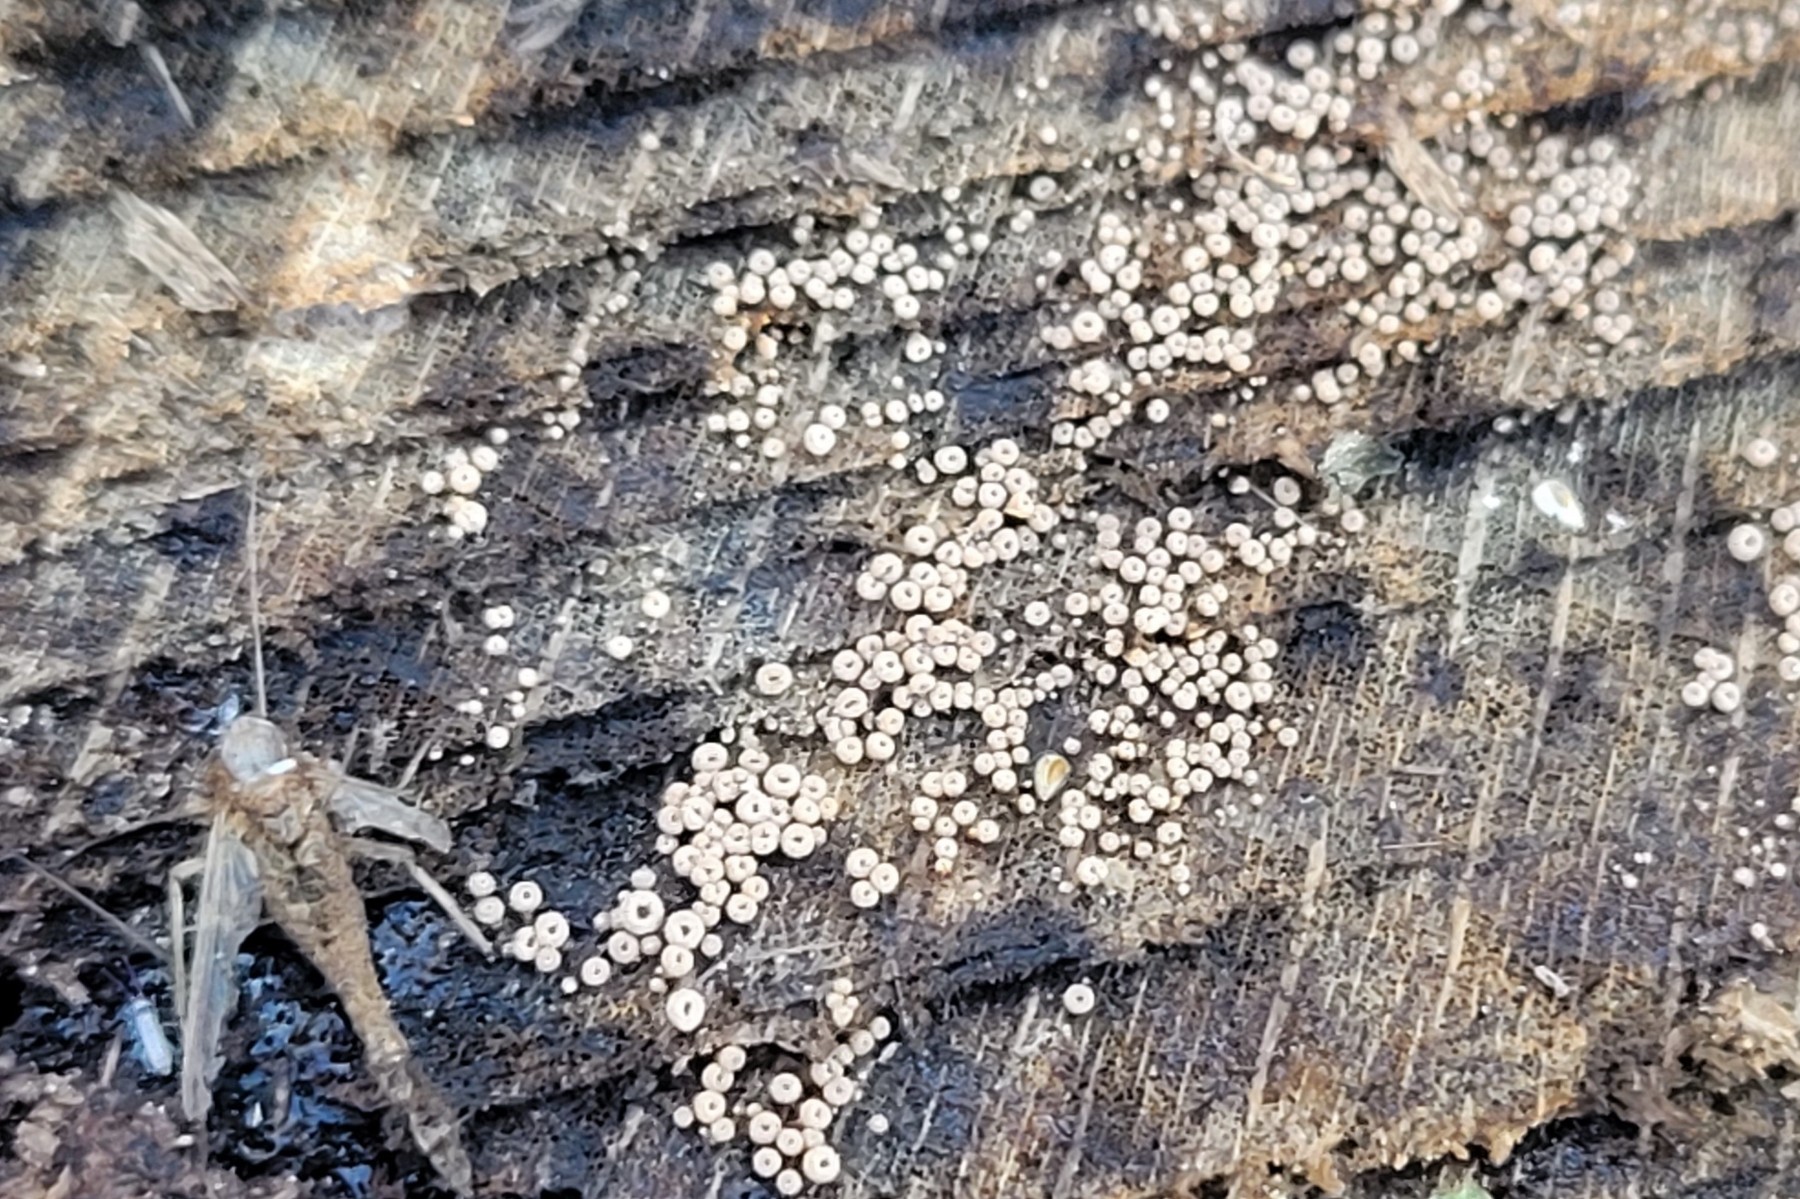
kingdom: Fungi
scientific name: Fungi
